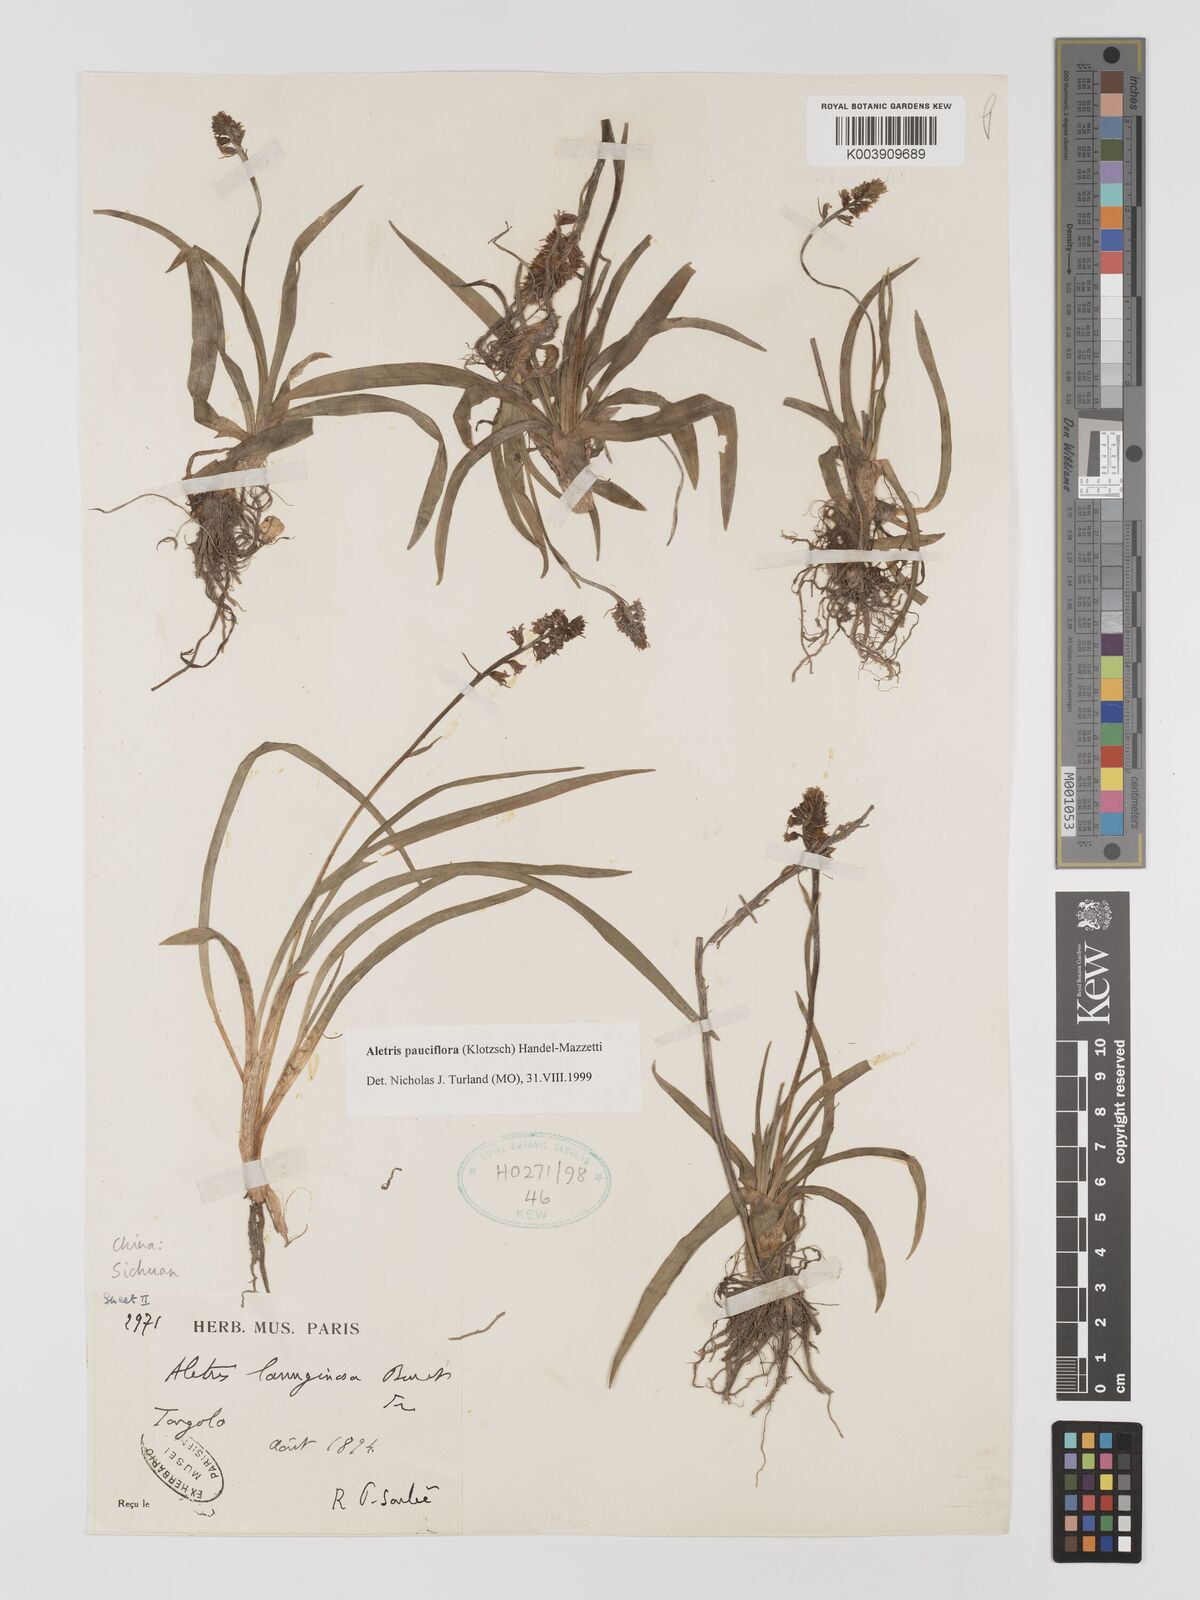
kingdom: Plantae
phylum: Tracheophyta
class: Liliopsida
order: Dioscoreales
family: Nartheciaceae
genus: Aletris
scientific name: Aletris pauciflora
